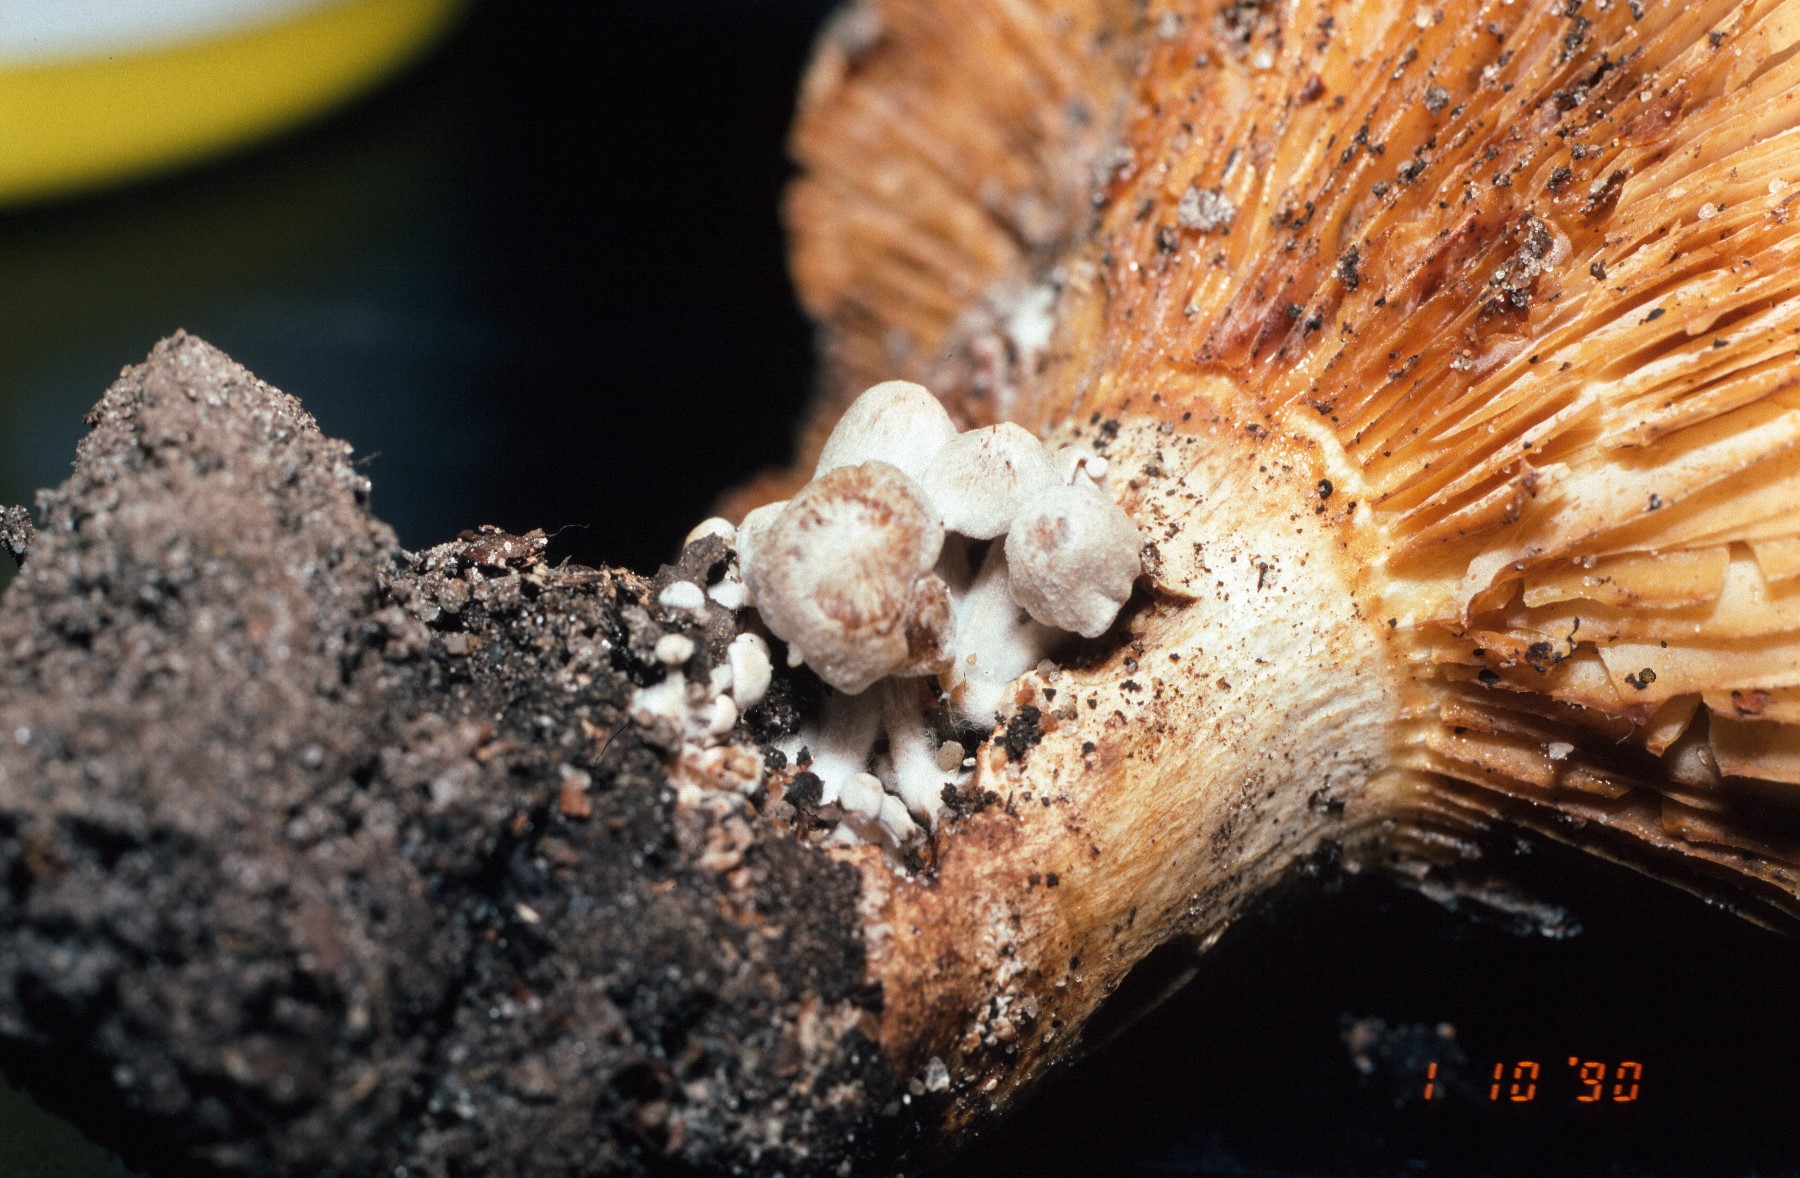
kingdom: Fungi
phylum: Basidiomycota
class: Agaricomycetes
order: Agaricales
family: Lyophyllaceae
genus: Asterophora
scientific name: Asterophora parasitica
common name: grå snyltehat
